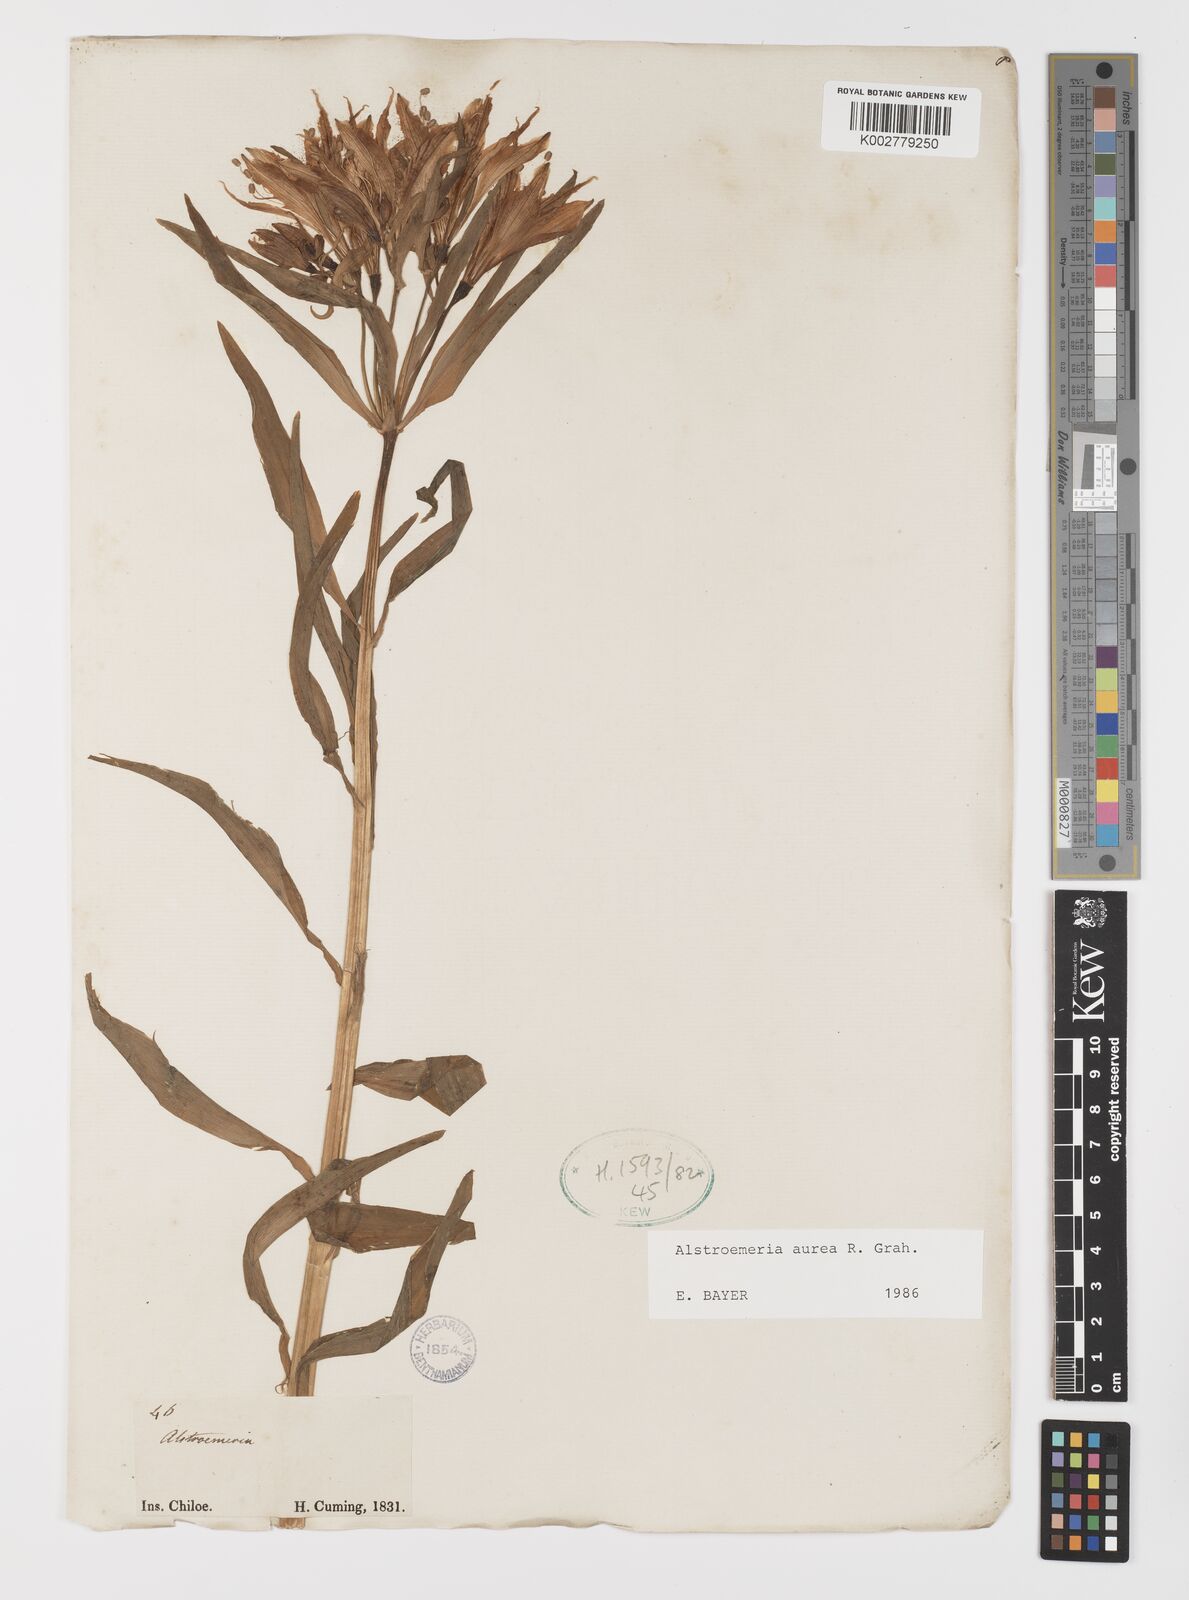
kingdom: Plantae
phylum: Tracheophyta
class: Liliopsida
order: Liliales
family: Alstroemeriaceae
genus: Alstroemeria
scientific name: Alstroemeria aurea
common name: Peruvian lily
